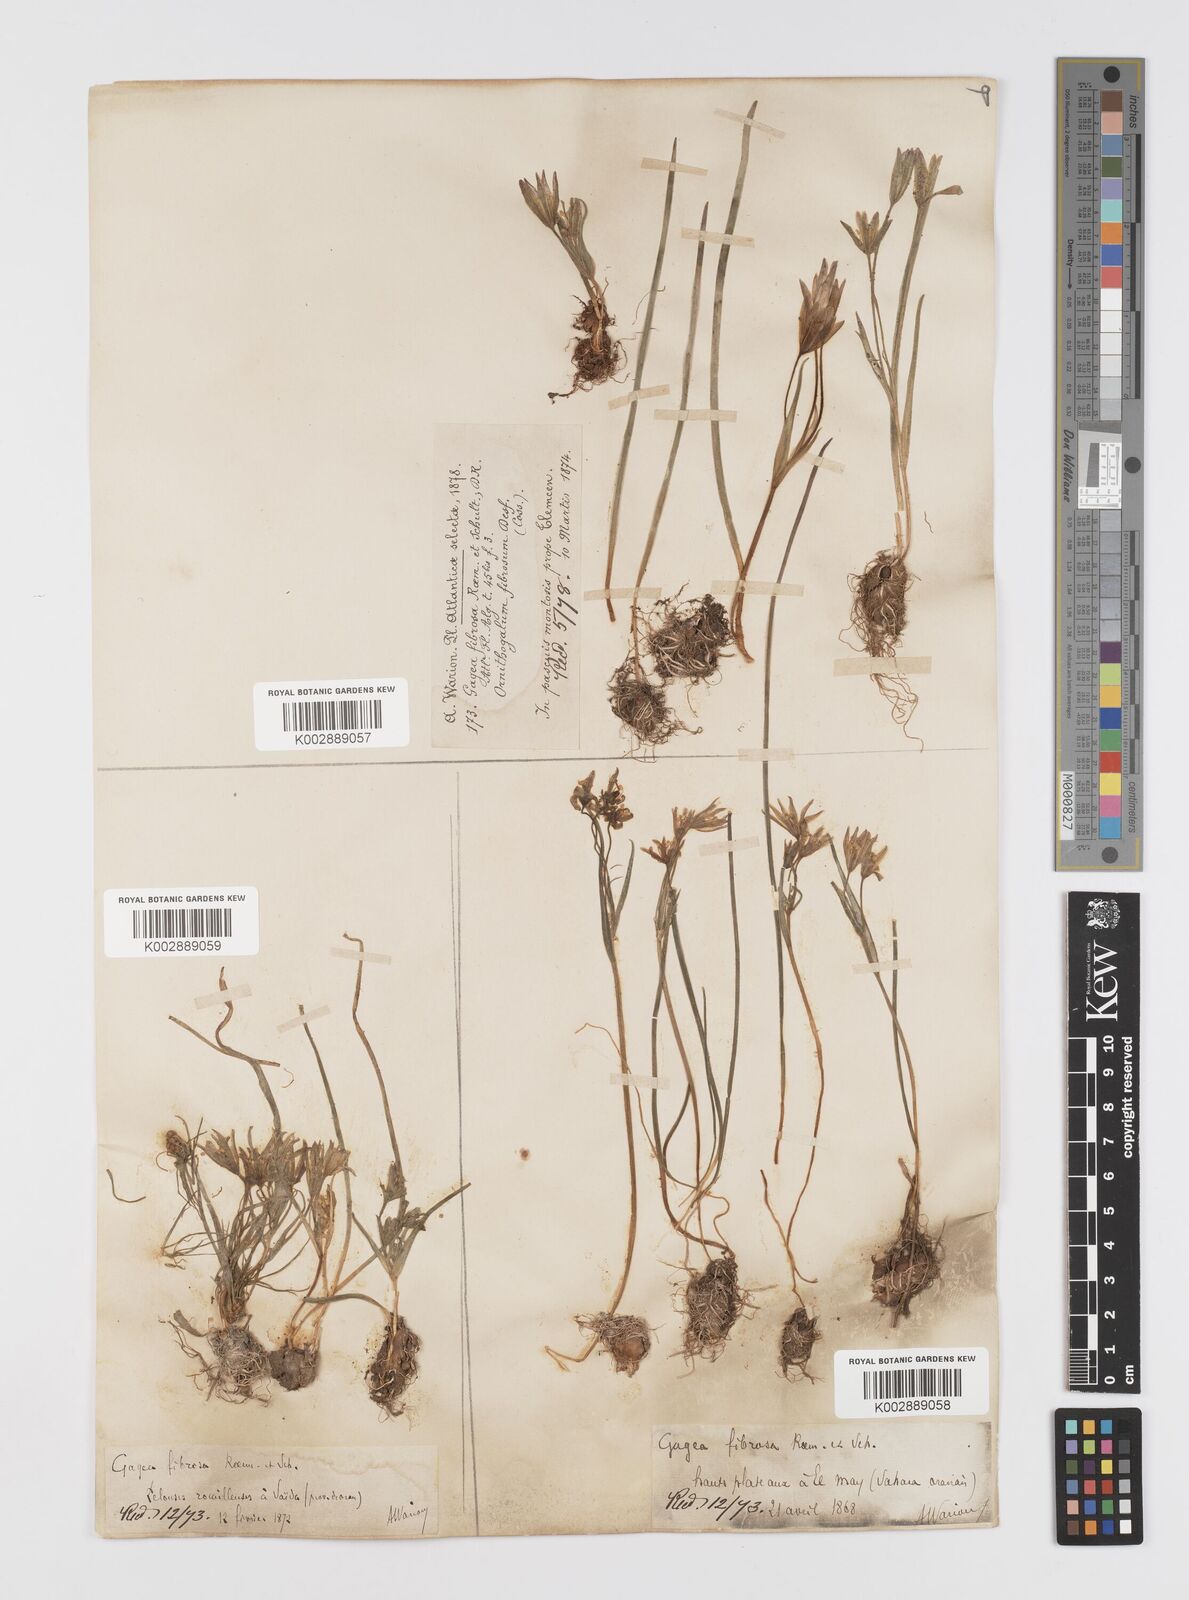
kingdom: Plantae
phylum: Tracheophyta
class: Liliopsida
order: Liliales
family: Liliaceae
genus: Gagea
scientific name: Gagea fibrosa
